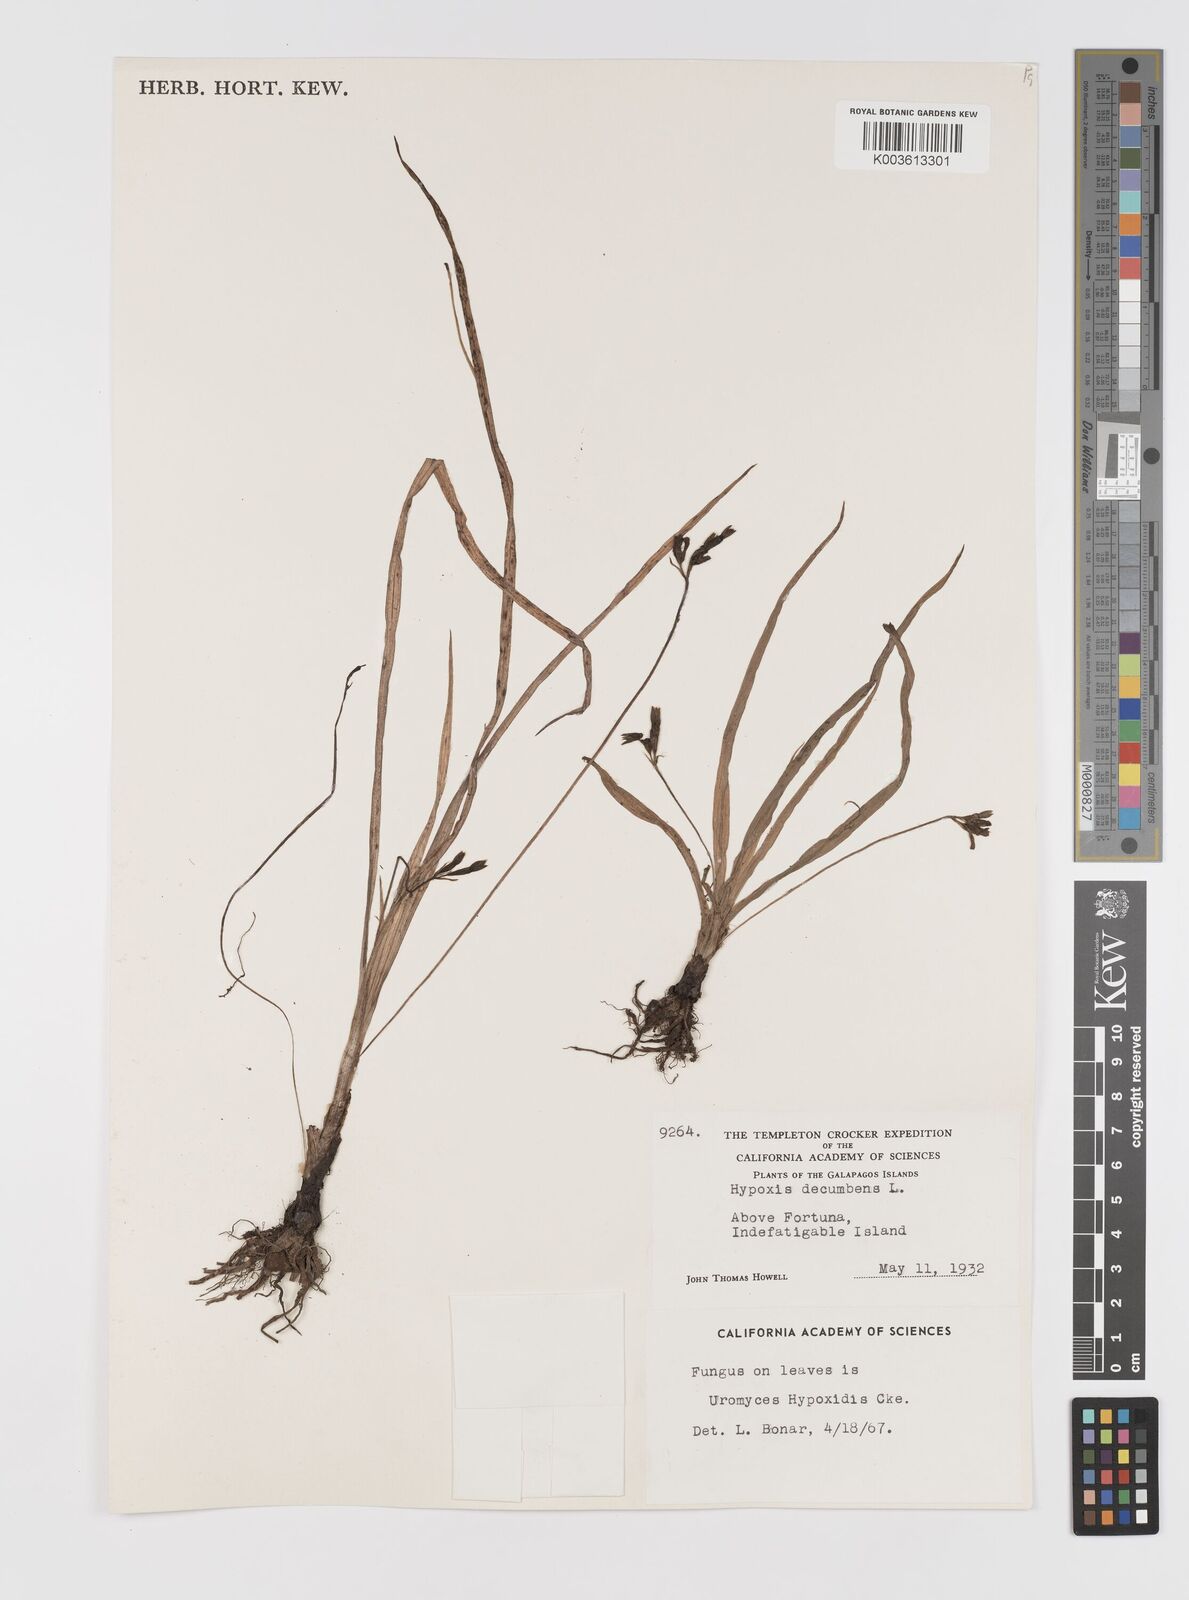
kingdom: Plantae
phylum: Tracheophyta
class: Liliopsida
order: Asparagales
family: Hypoxidaceae
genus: Hypoxis
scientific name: Hypoxis decumbens
